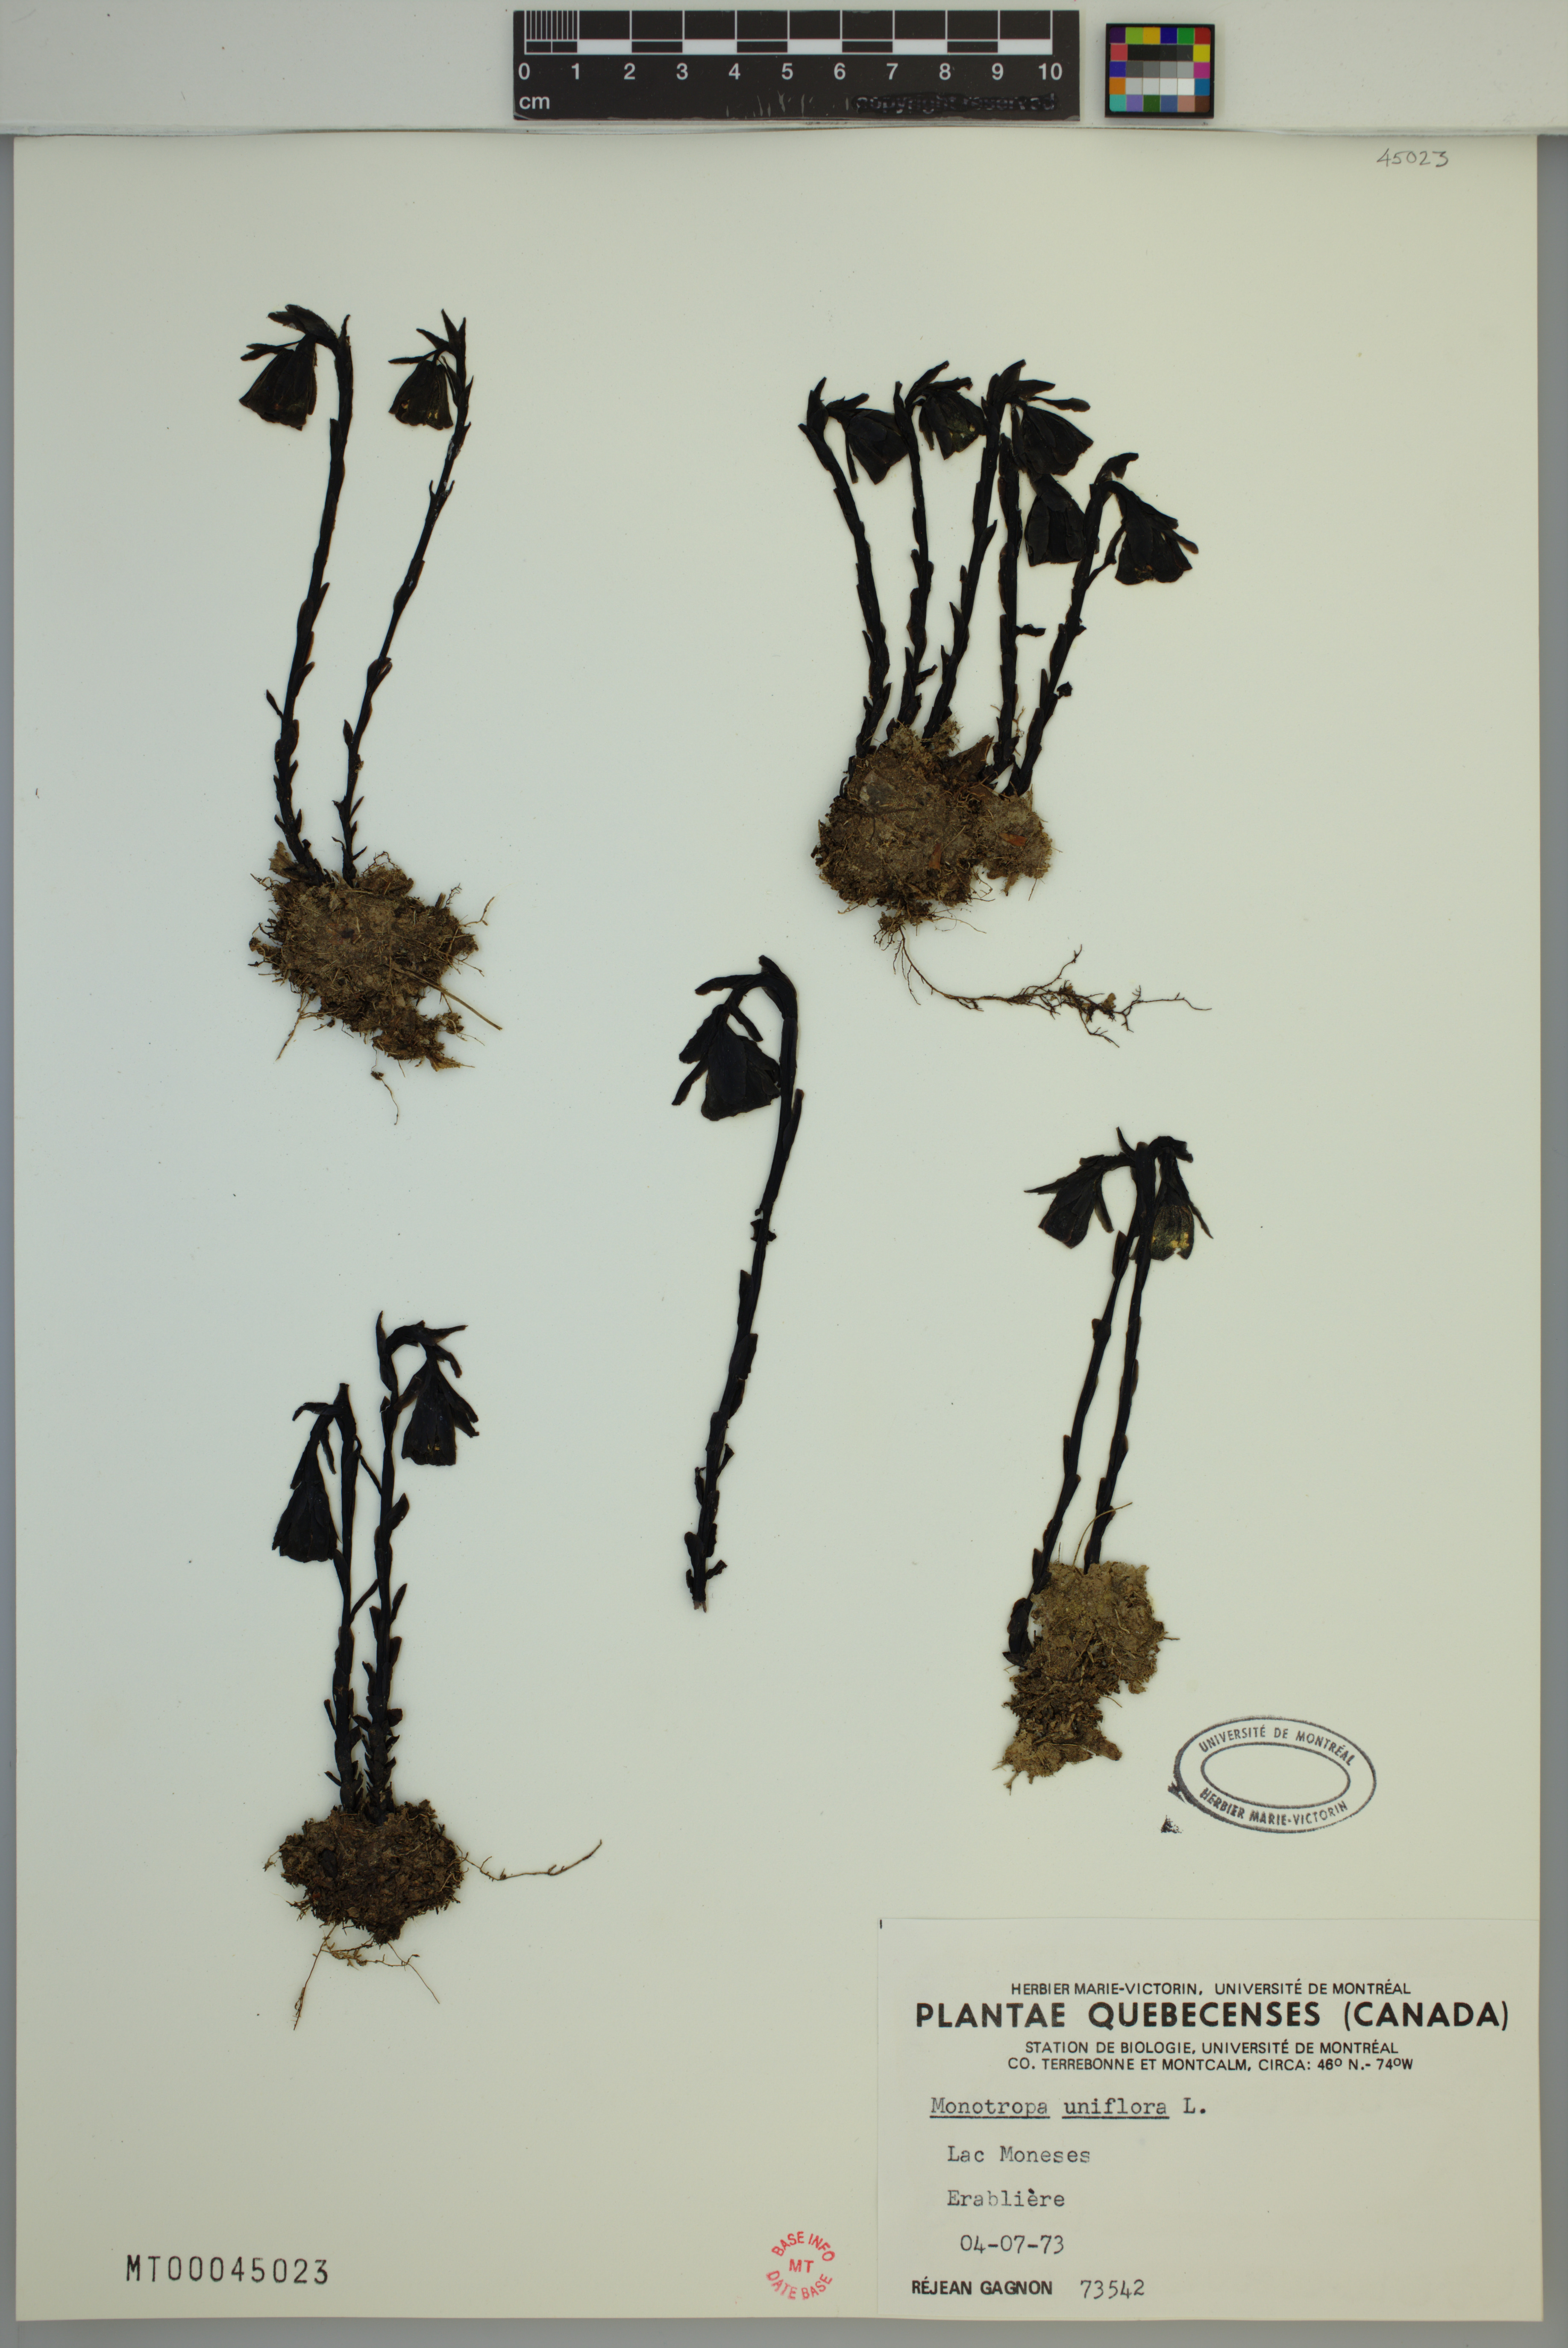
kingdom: Plantae
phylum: Tracheophyta
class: Magnoliopsida
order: Ericales
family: Ericaceae
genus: Monotropa
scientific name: Monotropa uniflora
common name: Convulsion root
